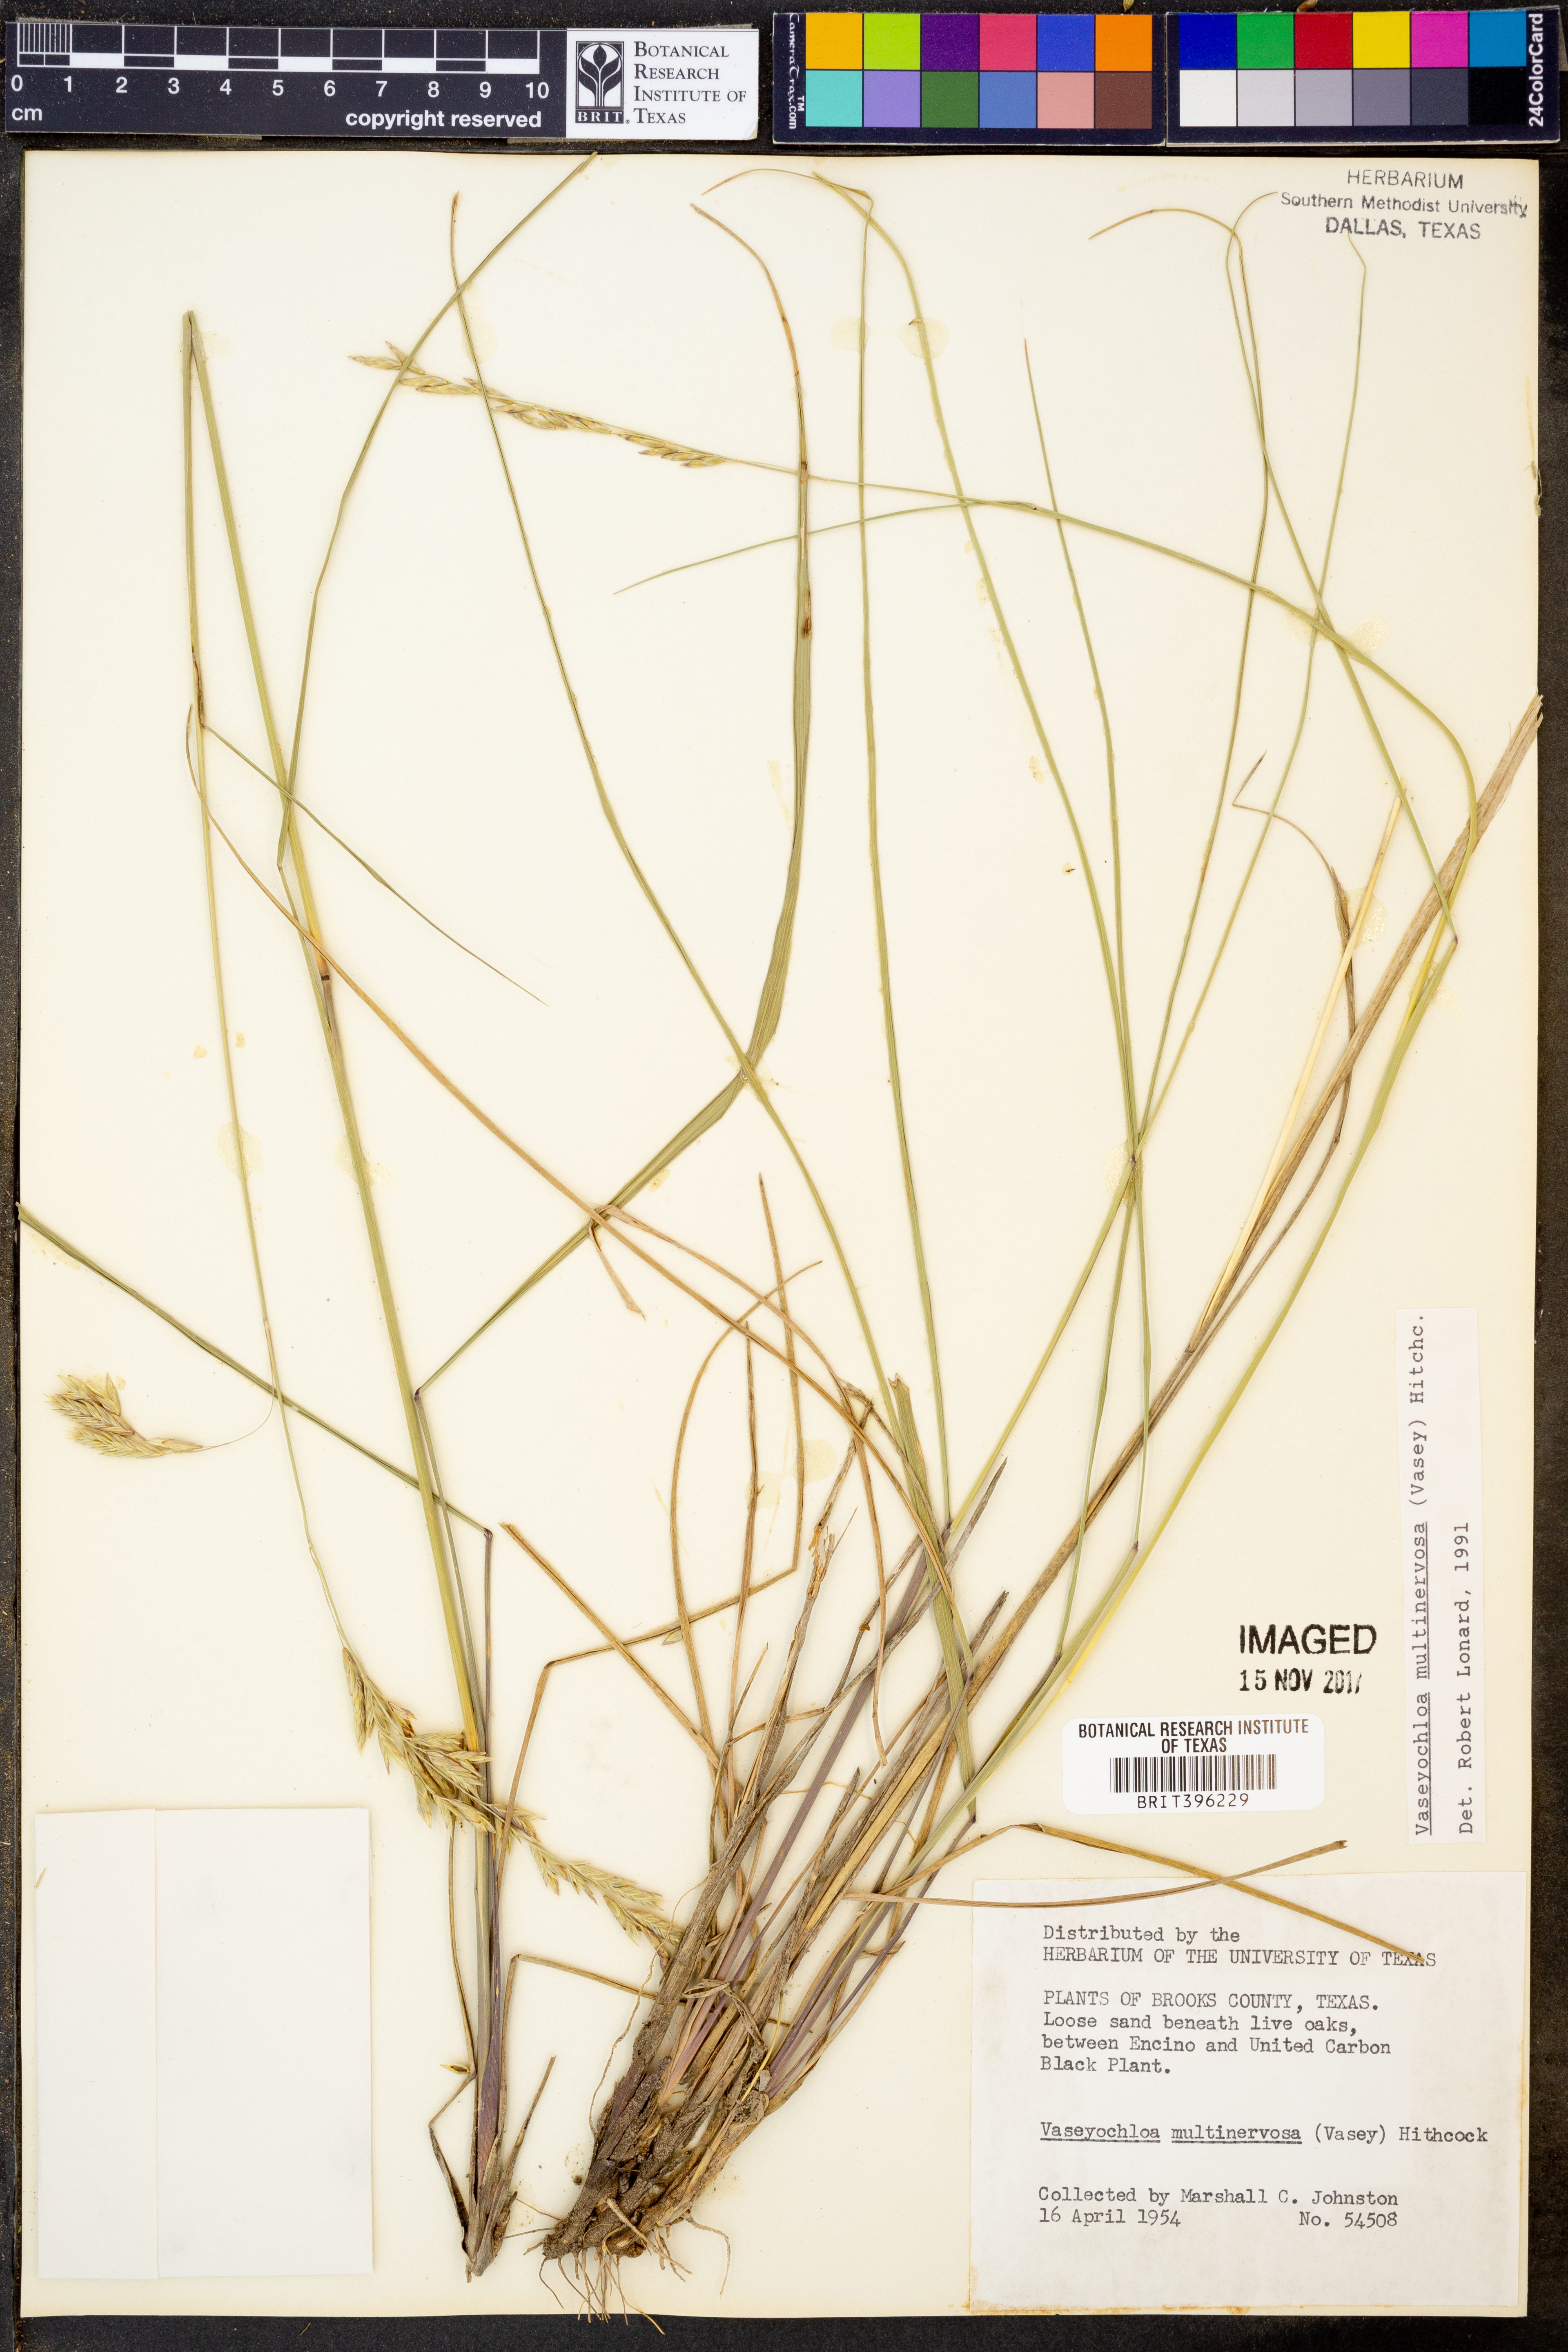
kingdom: Plantae
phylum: Tracheophyta
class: Liliopsida
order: Poales
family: Poaceae
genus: Vaseyochloa
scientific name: Vaseyochloa multinervosa
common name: Texas grass
